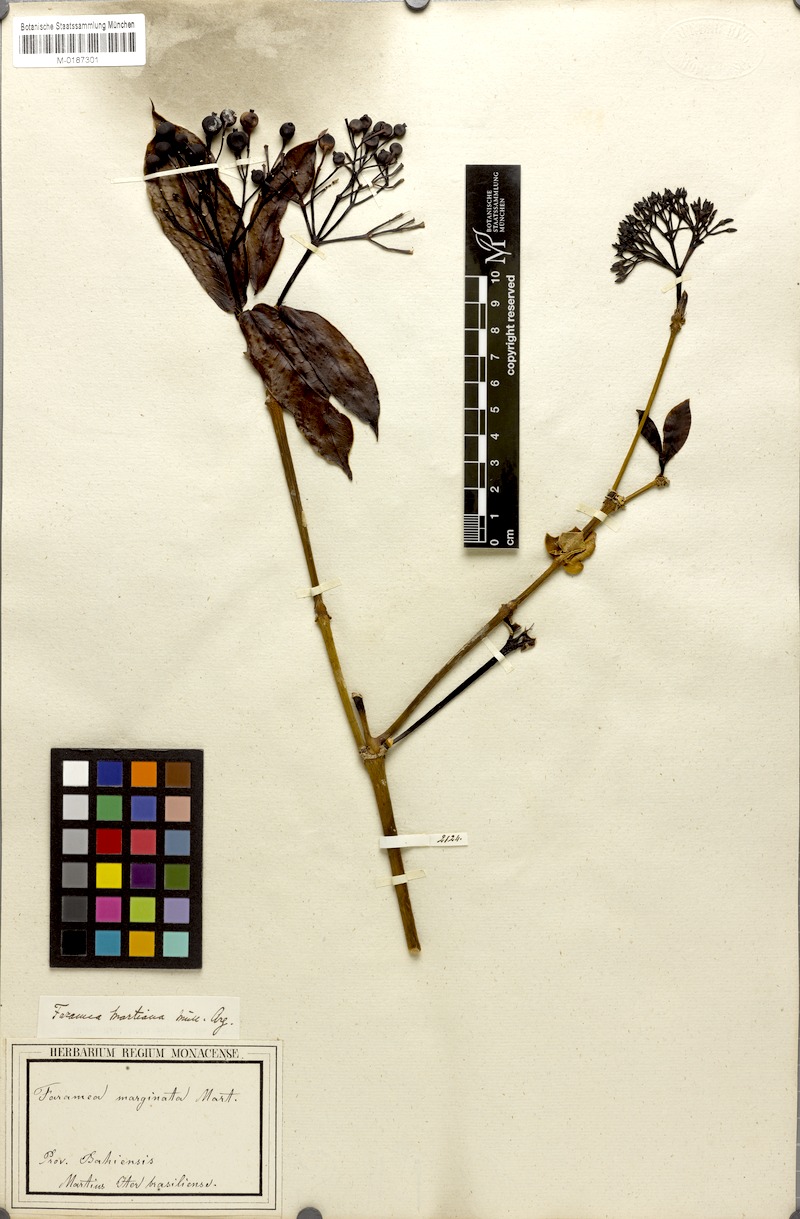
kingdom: Plantae
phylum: Tracheophyta
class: Magnoliopsida
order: Gentianales
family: Rubiaceae
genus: Faramea
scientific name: Faramea martiana
